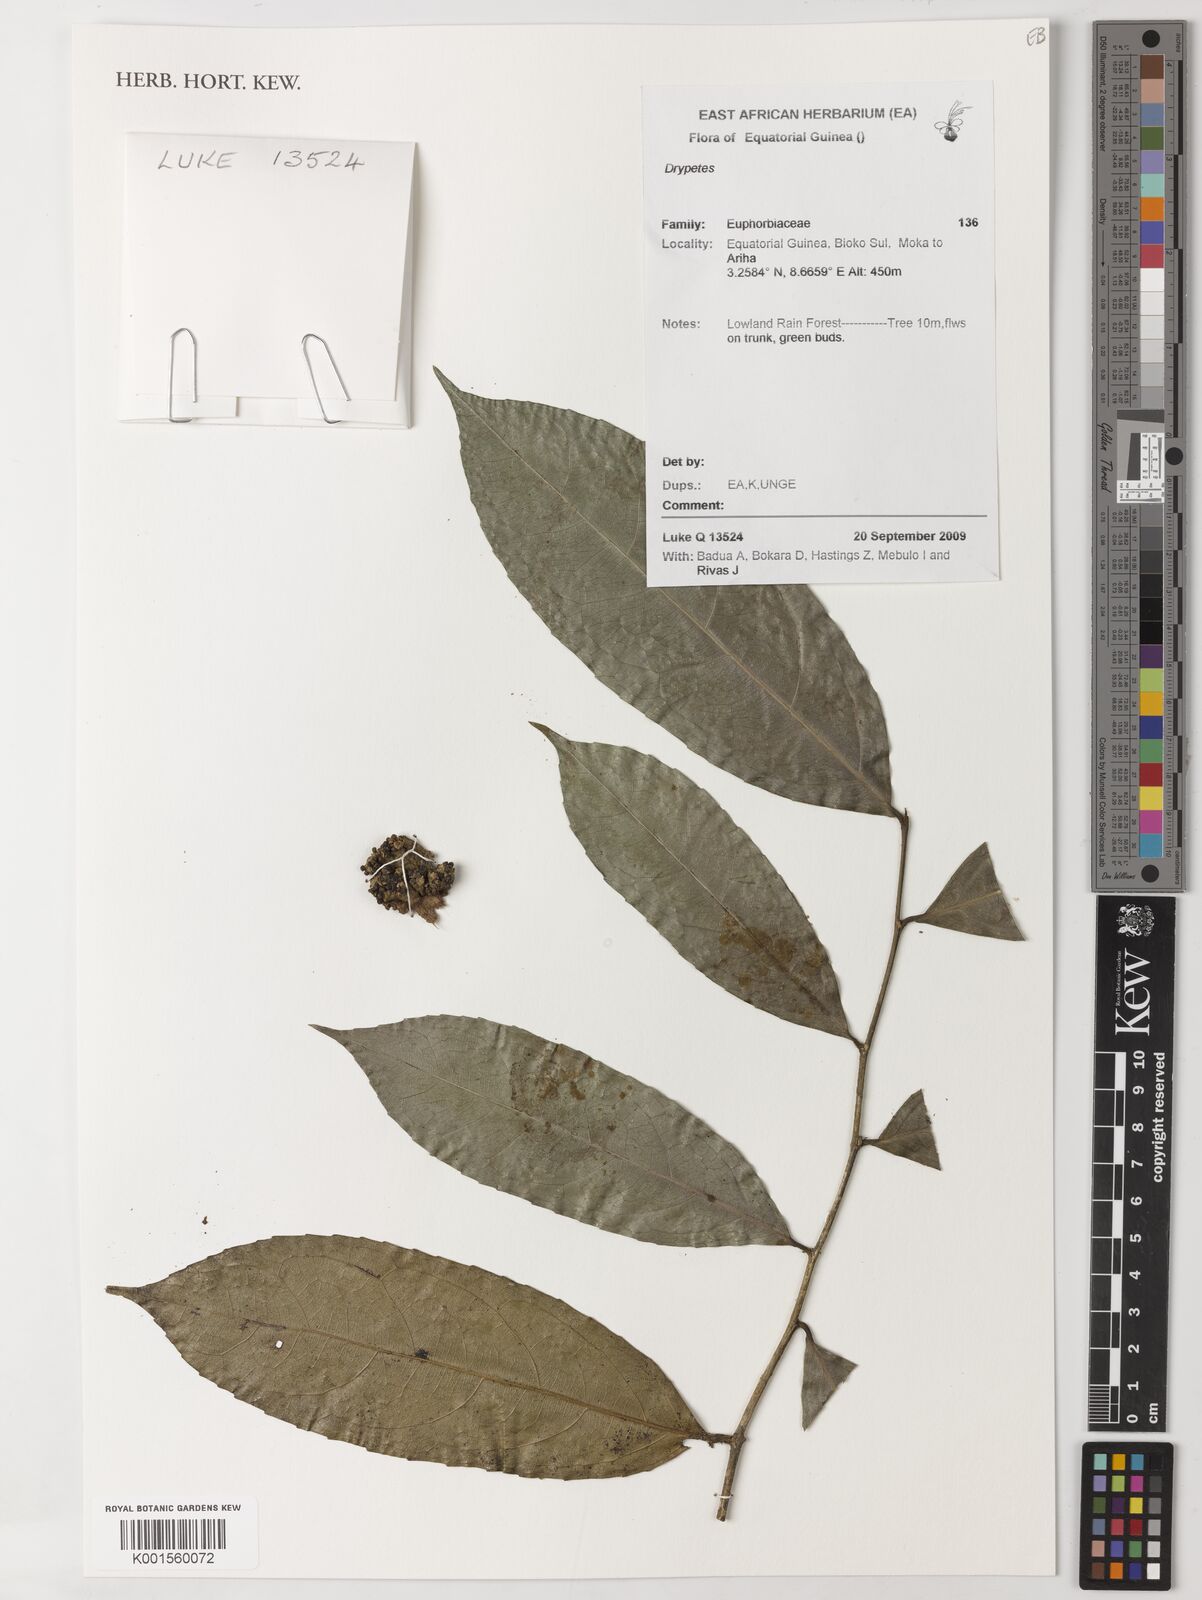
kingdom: Plantae
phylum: Tracheophyta
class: Magnoliopsida
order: Malpighiales
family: Putranjivaceae
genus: Drypetes
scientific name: Drypetes
